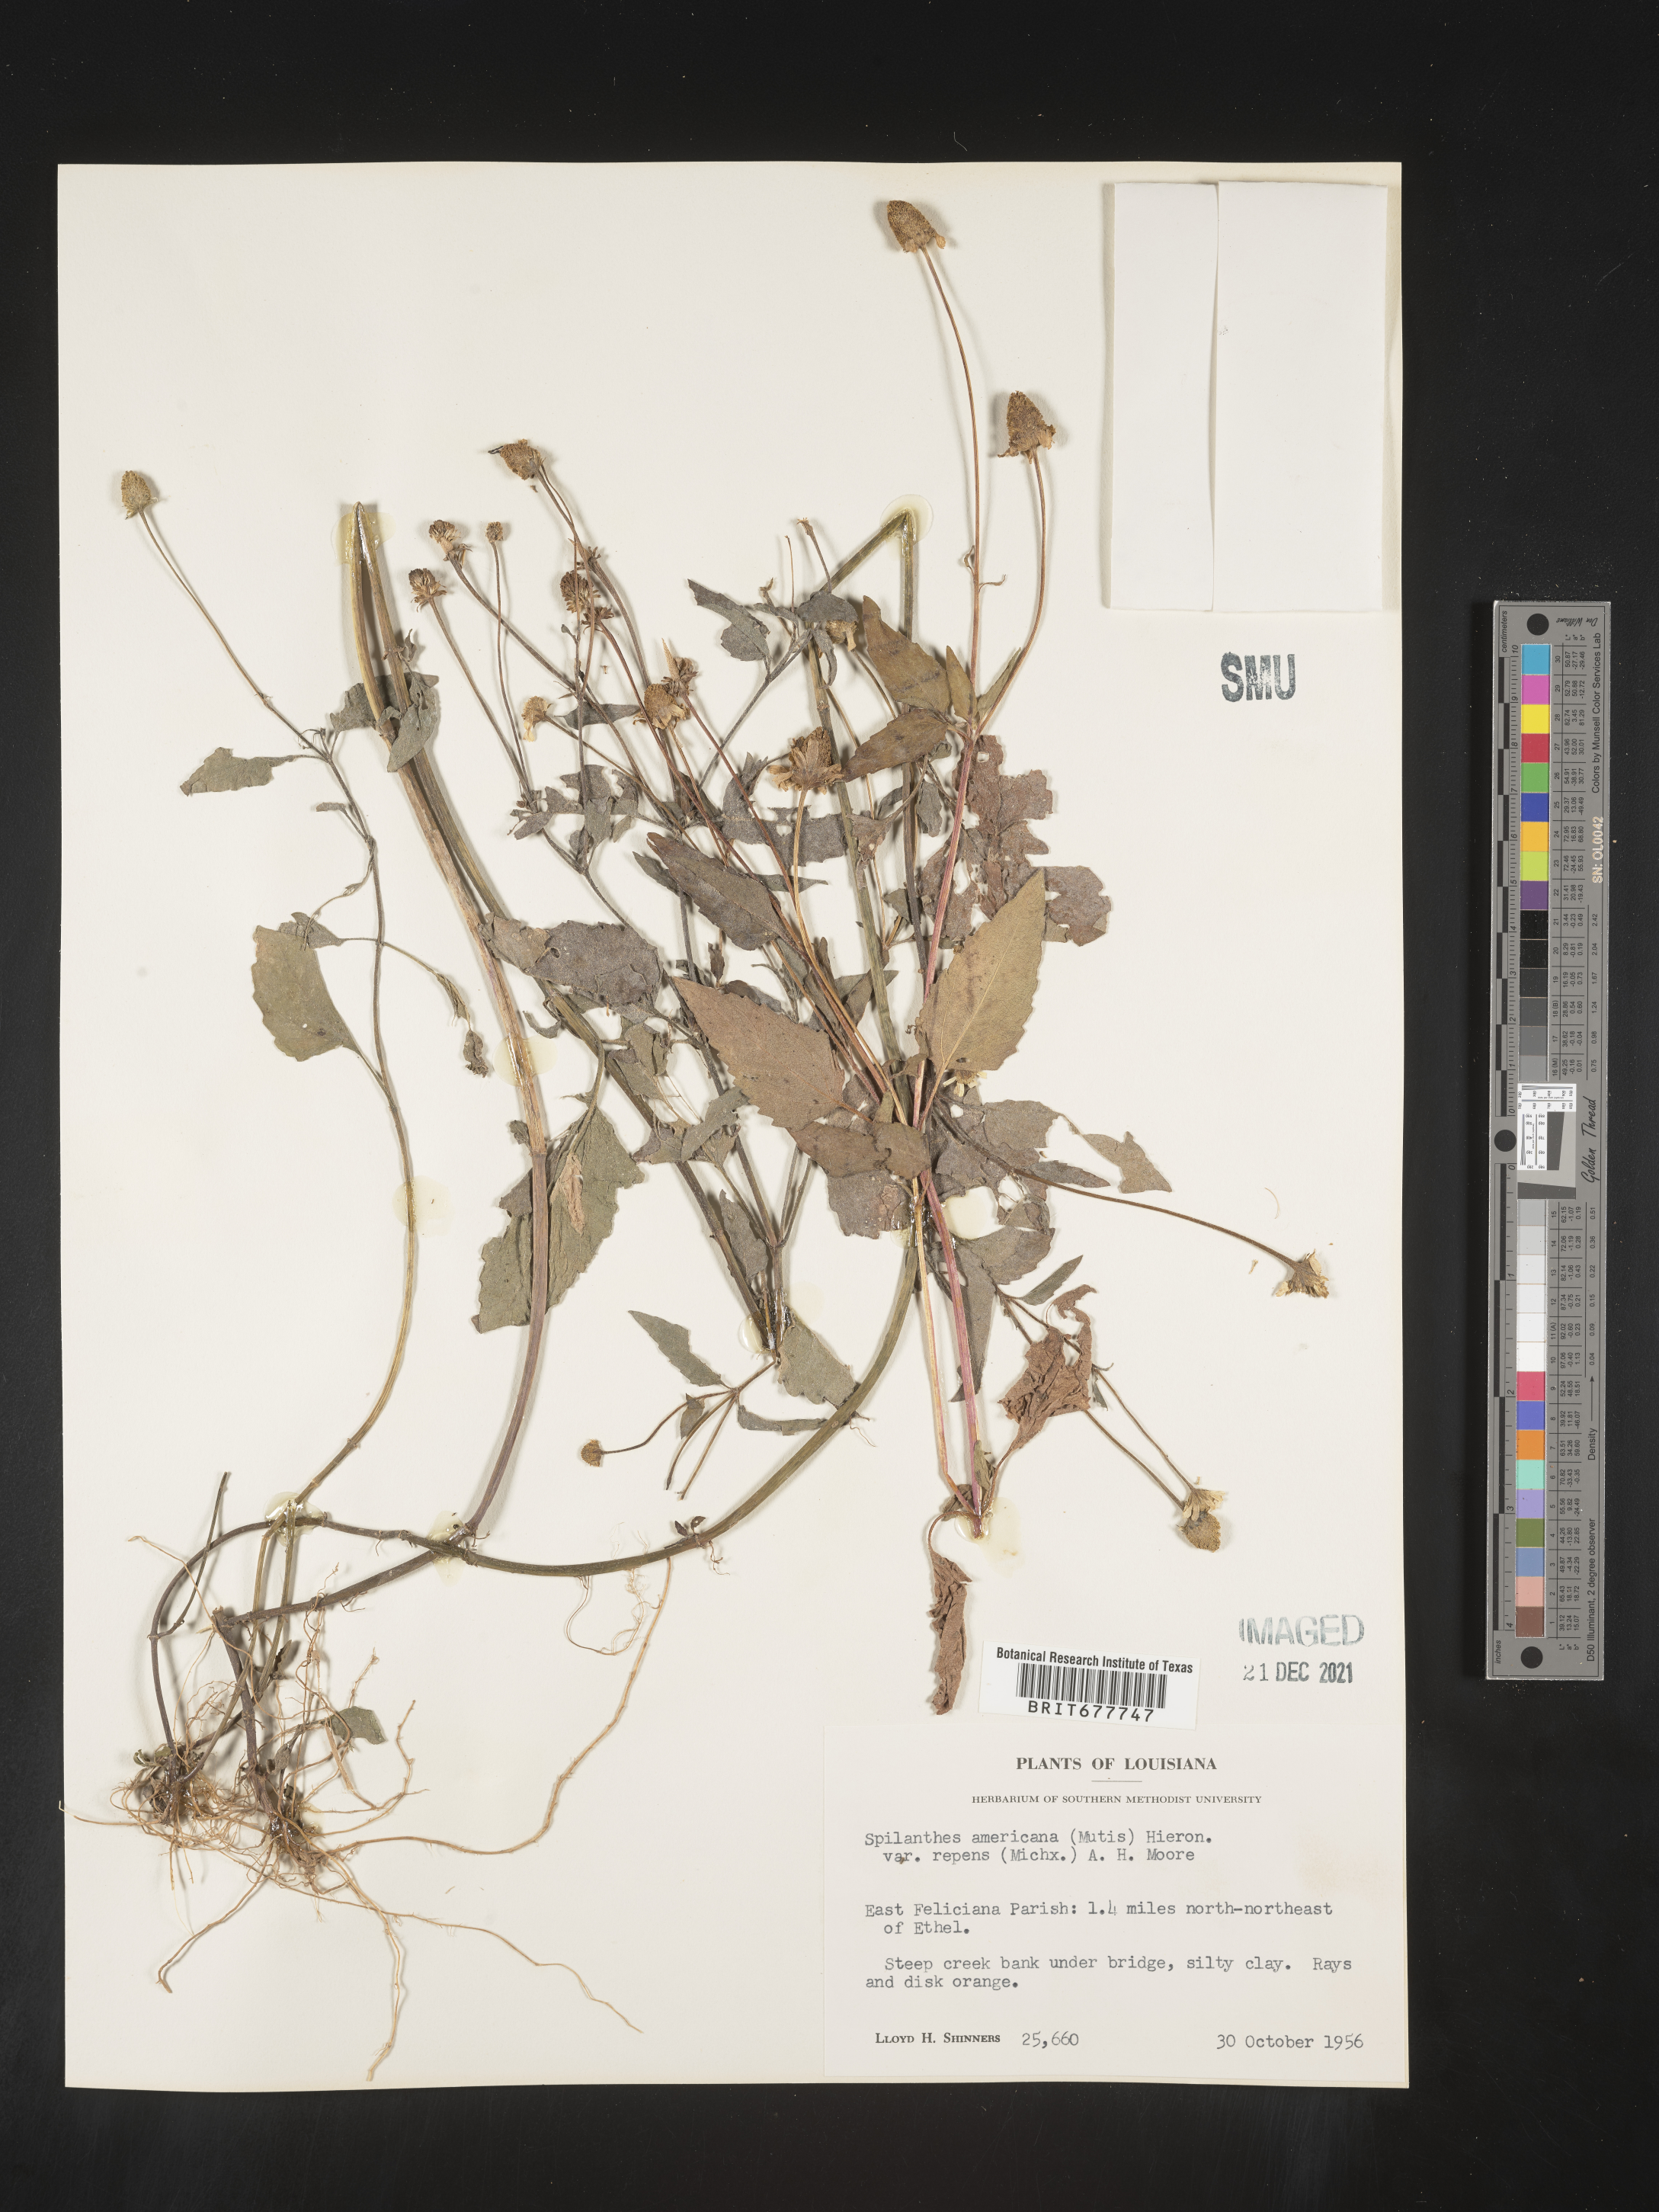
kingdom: Plantae
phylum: Tracheophyta
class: Magnoliopsida
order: Asterales
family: Asteraceae
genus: Spilanthes
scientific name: Spilanthes
